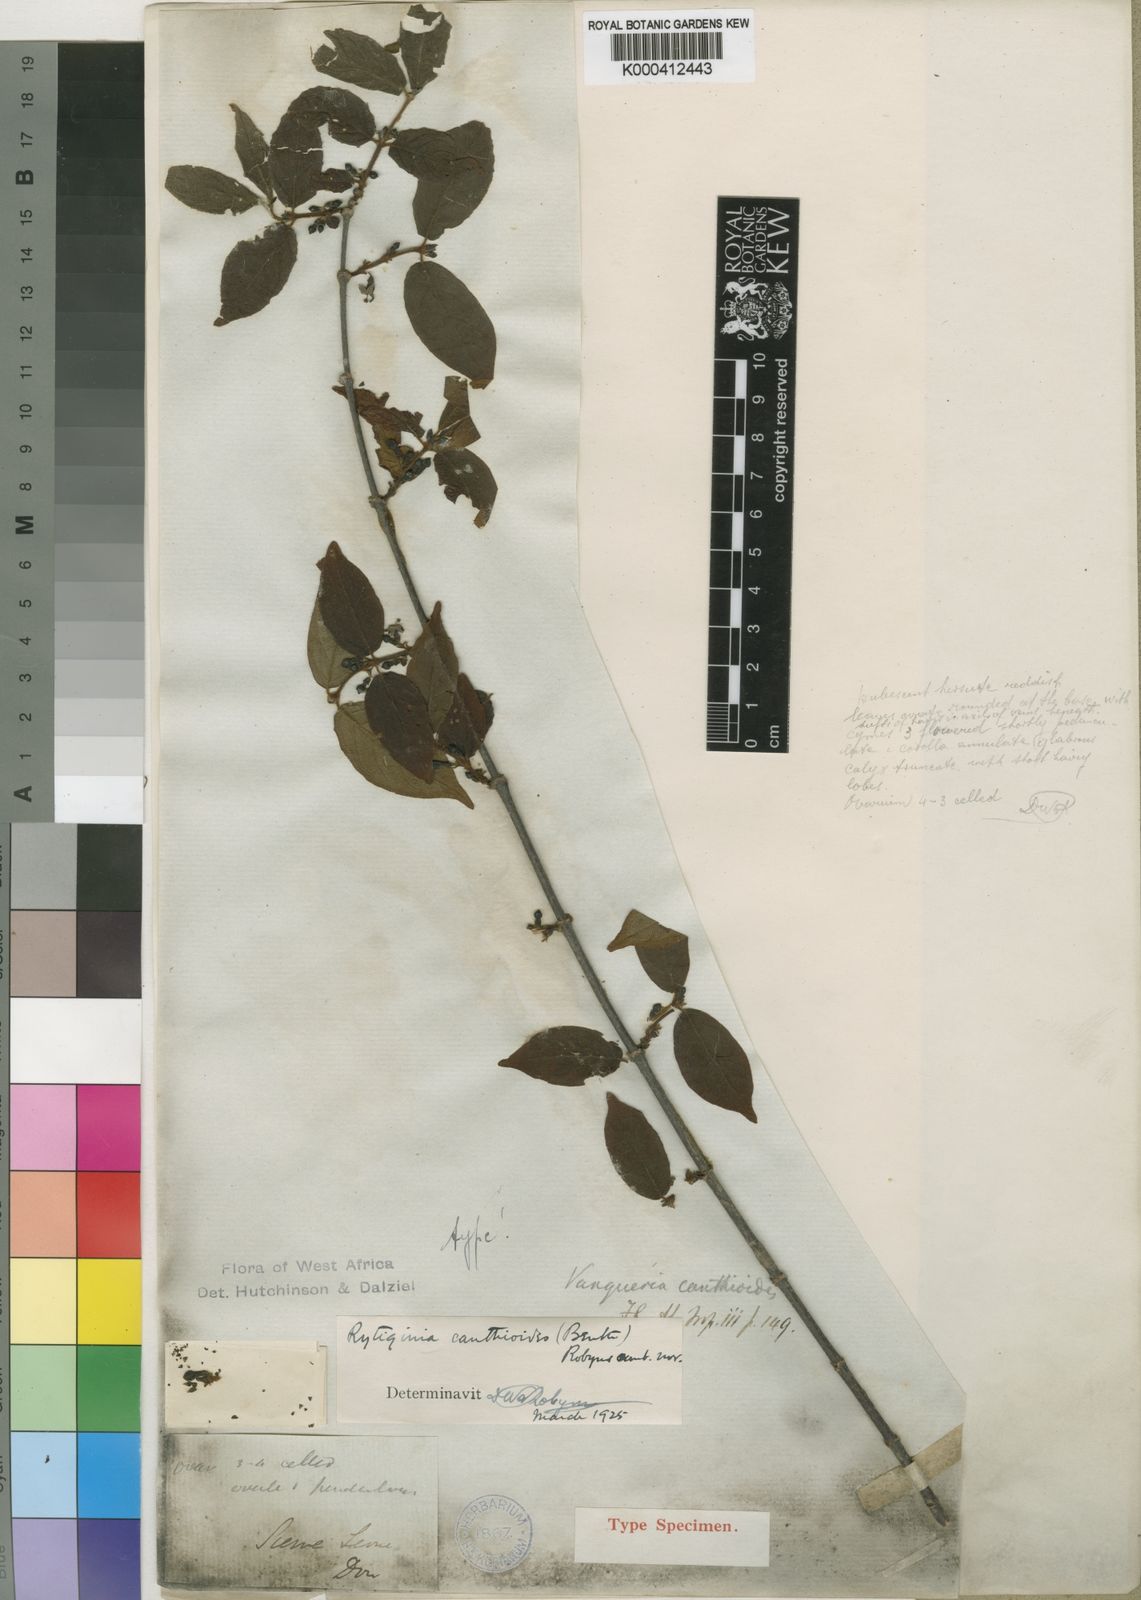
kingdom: Plantae
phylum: Tracheophyta
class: Magnoliopsida
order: Gentianales
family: Rubiaceae
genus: Rytigynia
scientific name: Rytigynia canthioides
